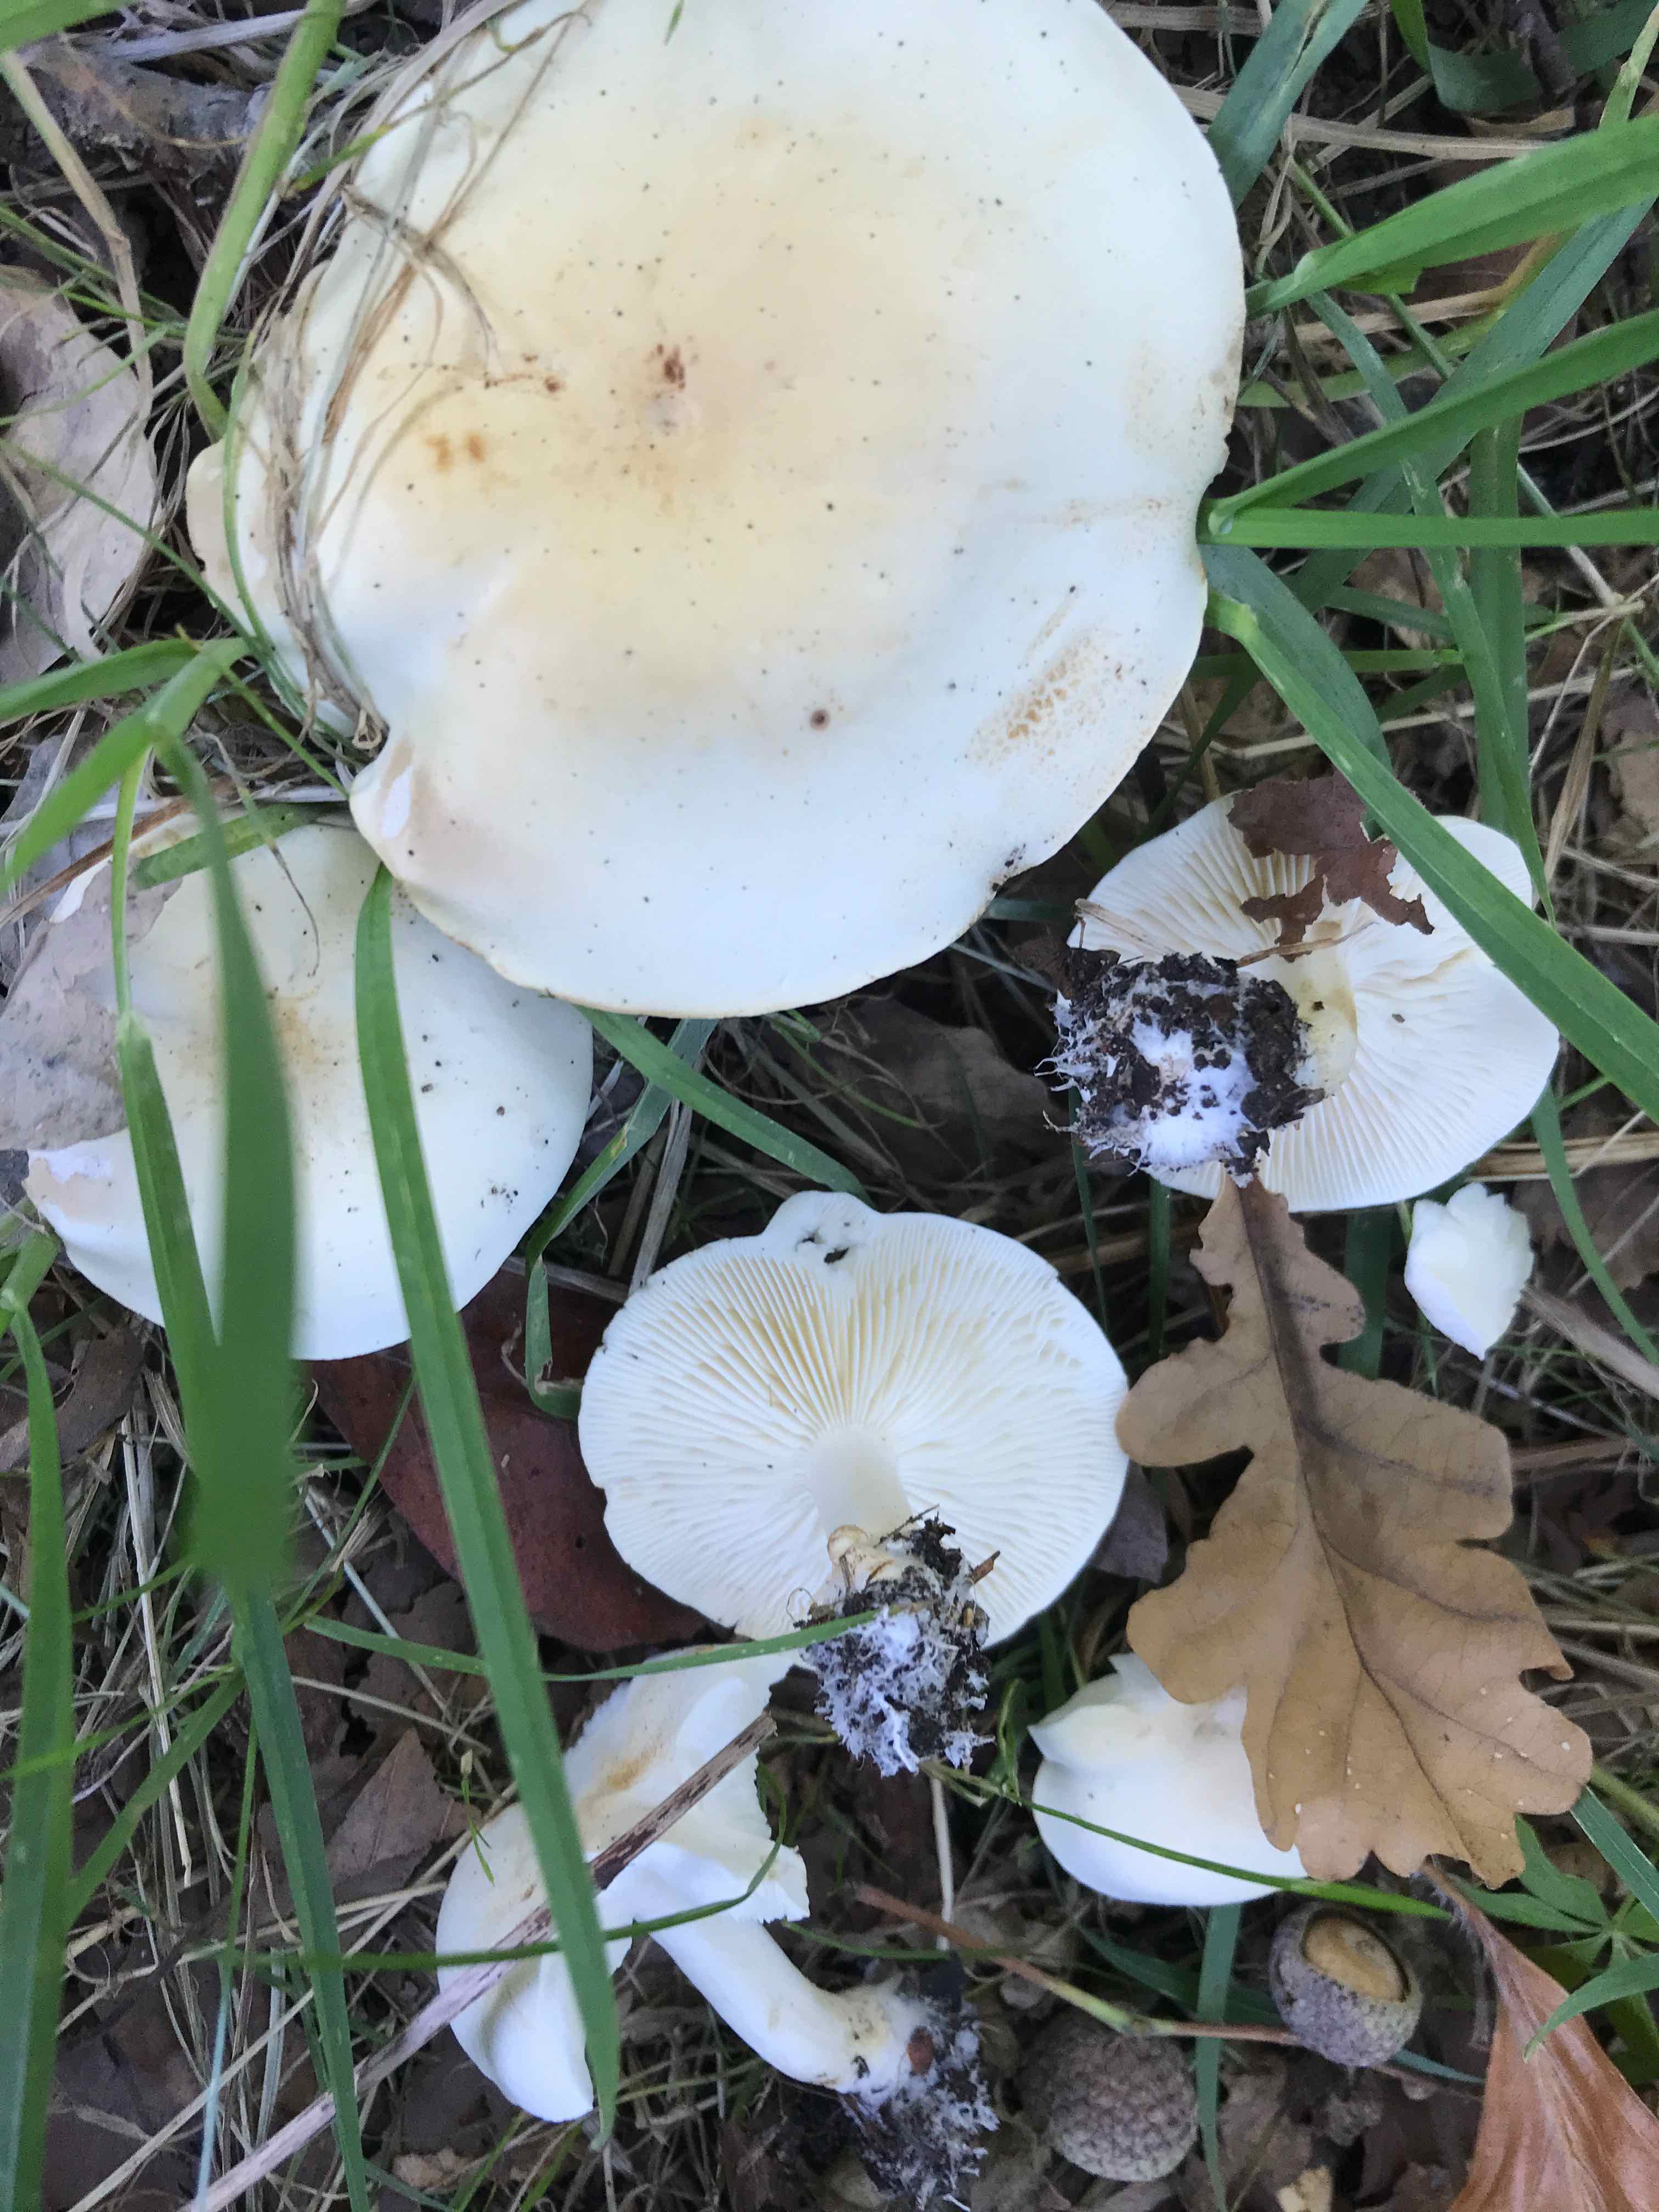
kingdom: Fungi
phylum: Basidiomycota
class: Agaricomycetes
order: Agaricales
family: Tricholomataceae
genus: Tricholoma
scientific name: Tricholoma album
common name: honning-ridderhat
